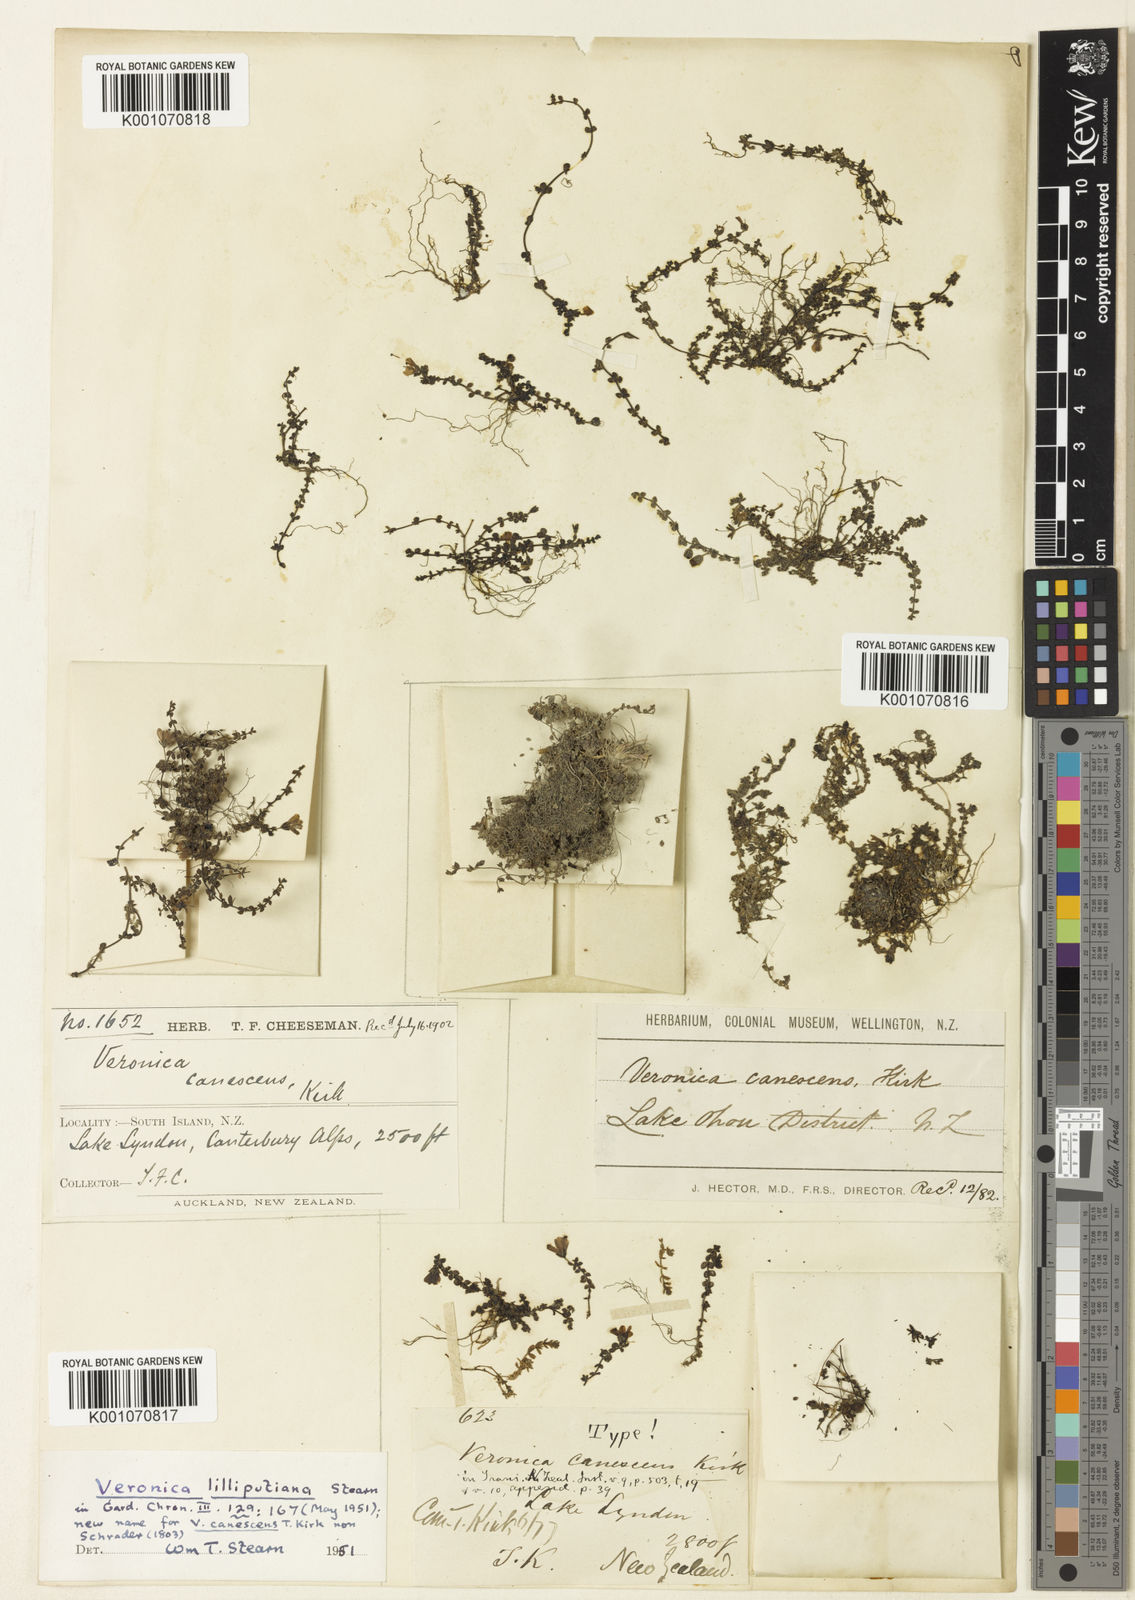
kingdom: Plantae
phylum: Tracheophyta
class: Magnoliopsida
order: Lamiales
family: Plantaginaceae
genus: Veronica
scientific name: Veronica lilliputiana
